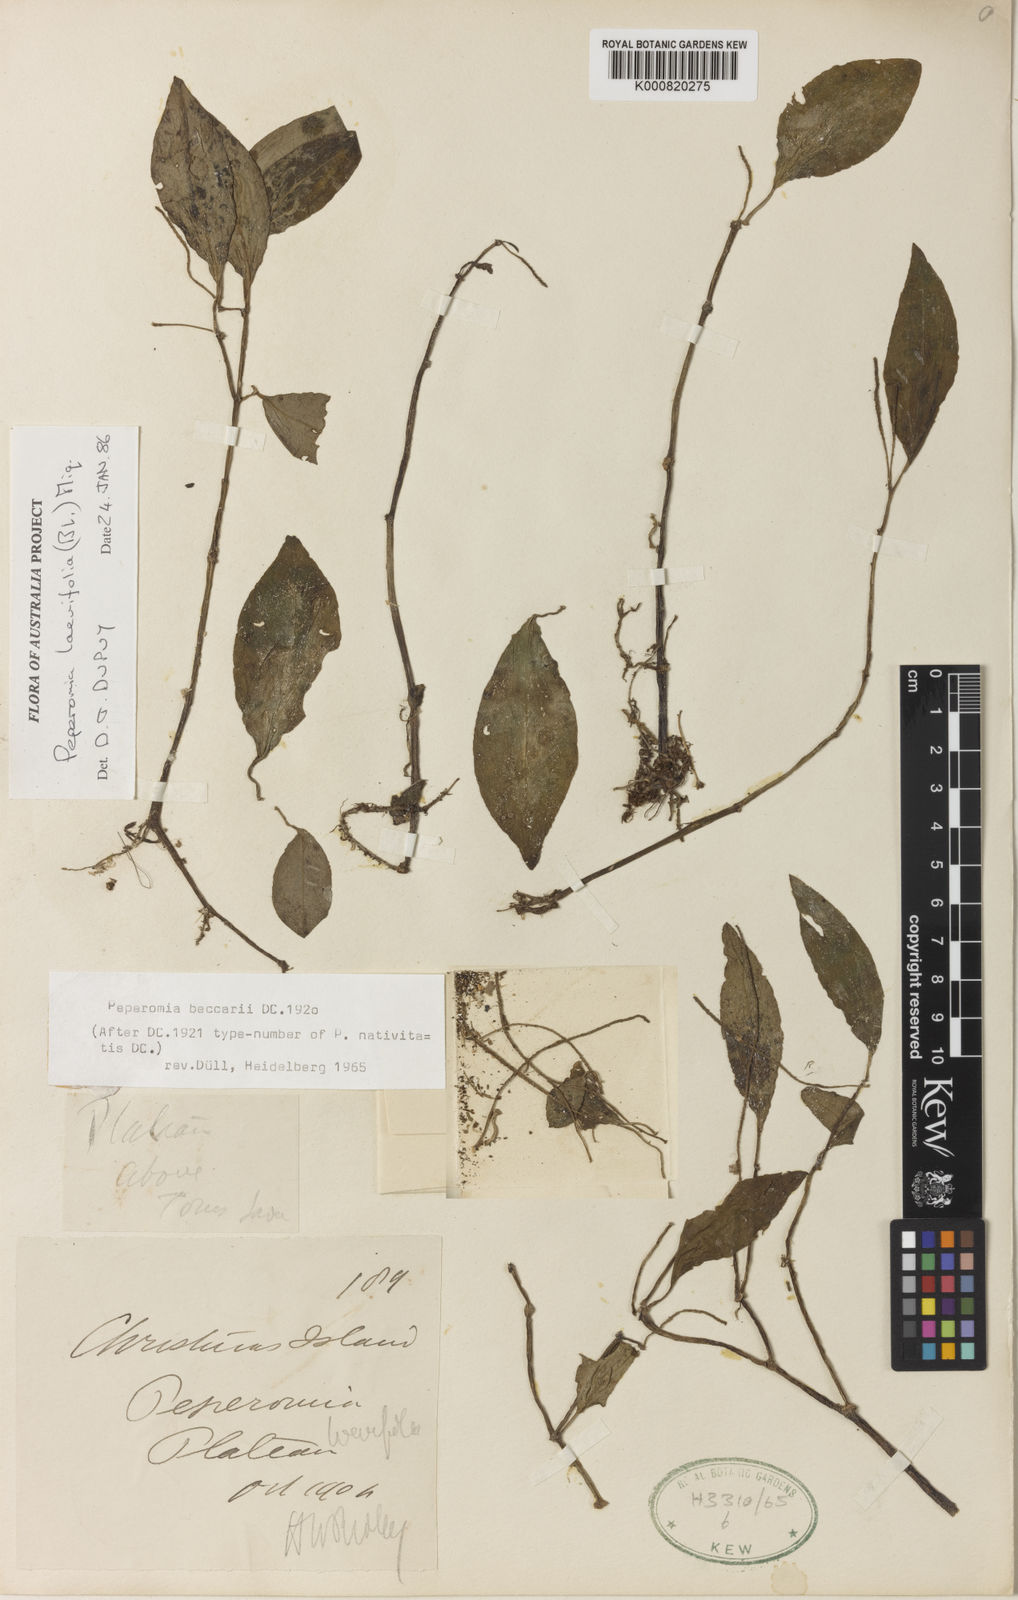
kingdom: Plantae
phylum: Tracheophyta
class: Magnoliopsida
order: Piperales
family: Piperaceae
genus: Peperomia
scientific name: Peperomia laevifolia
